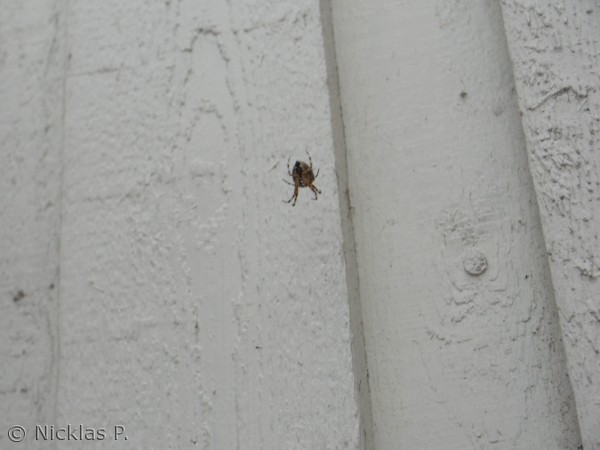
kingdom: Animalia
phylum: Arthropoda
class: Arachnida
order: Araneae
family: Araneidae
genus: Araneus
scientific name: Araneus diadematus
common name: Korsedderkop
